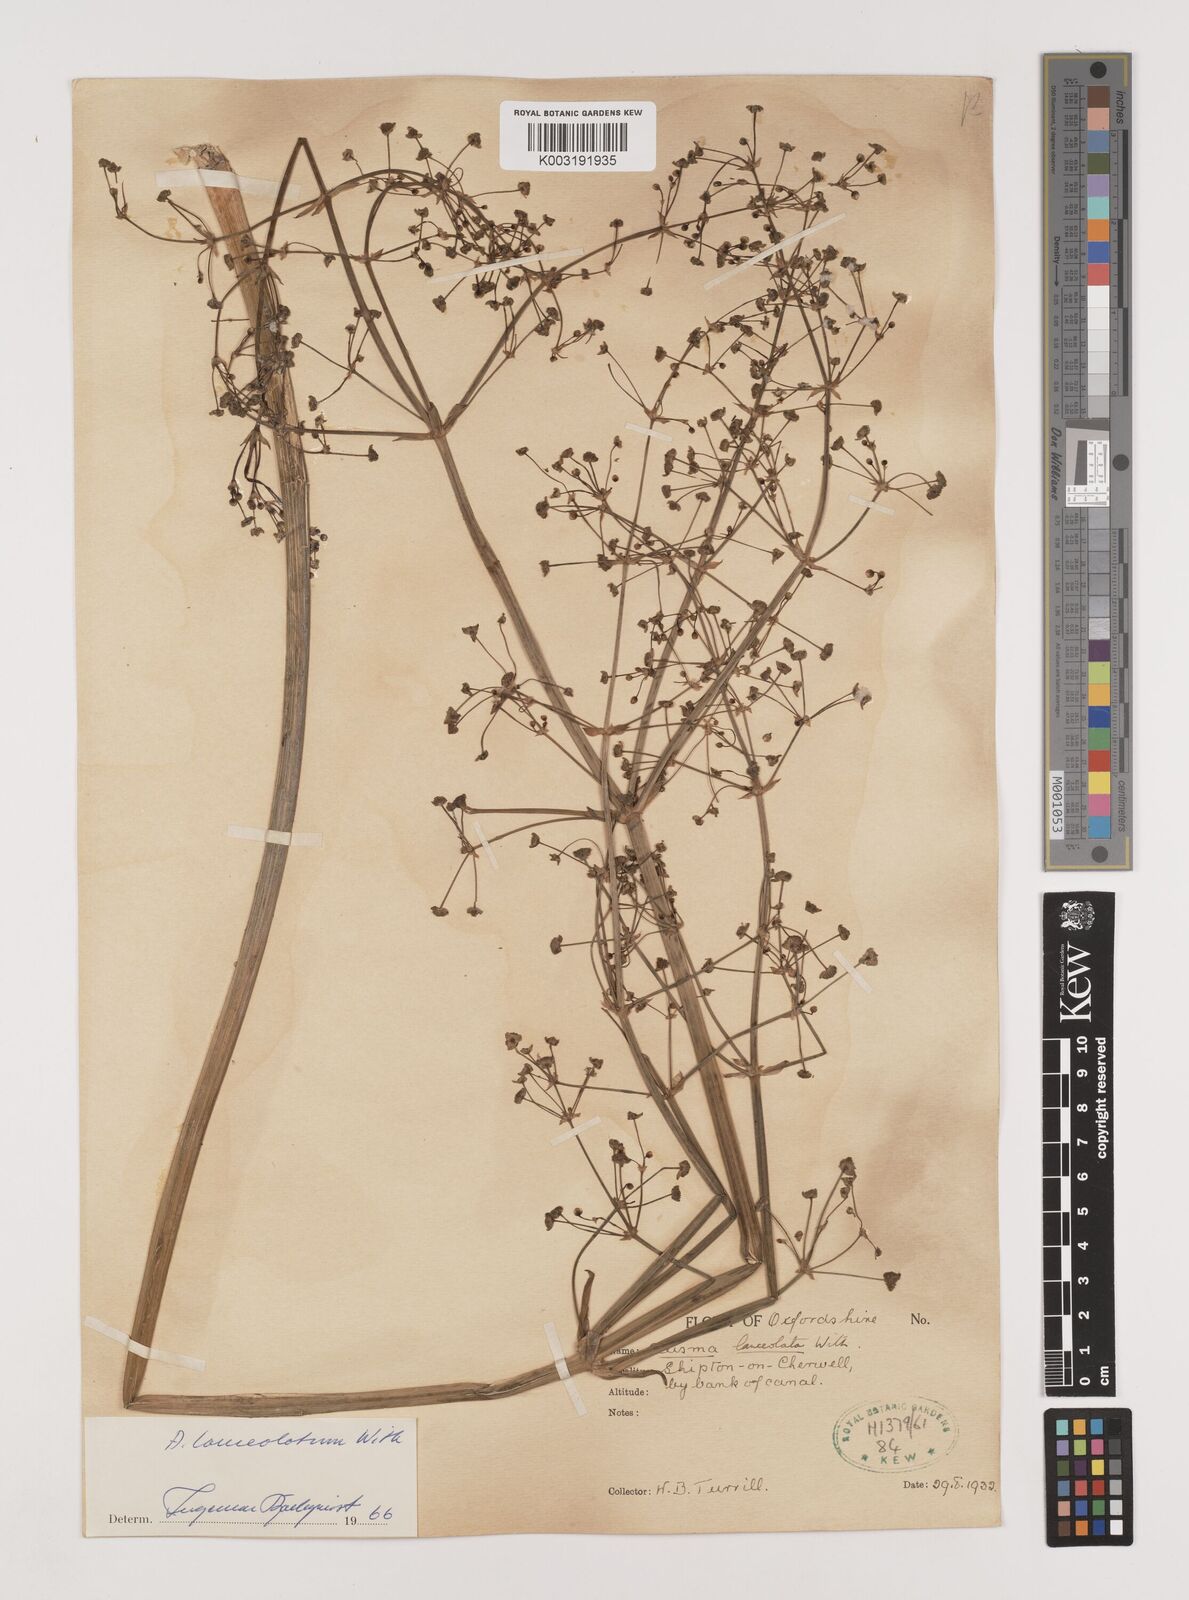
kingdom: Plantae
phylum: Tracheophyta
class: Liliopsida
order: Alismatales
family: Alismataceae
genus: Alisma
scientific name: Alisma lanceolatum
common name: Narrow-leaved water-plantain
